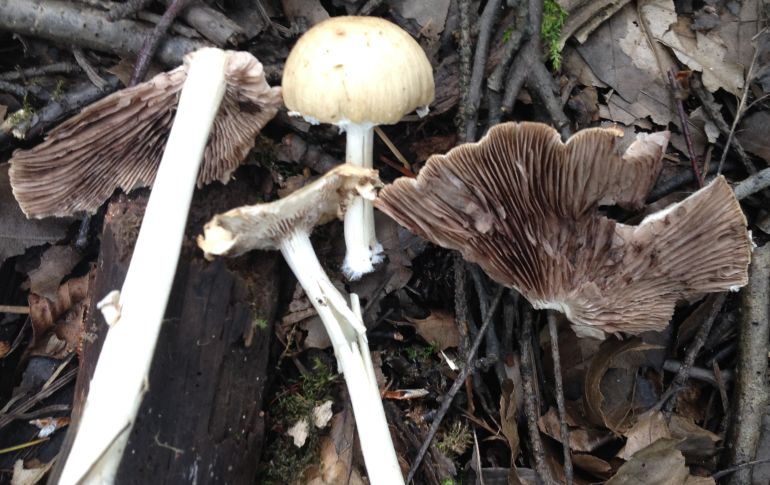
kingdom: Fungi
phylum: Basidiomycota
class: Agaricomycetes
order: Agaricales
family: Psathyrellaceae
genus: Candolleomyces
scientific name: Candolleomyces candolleanus
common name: Candolles mørkhat
